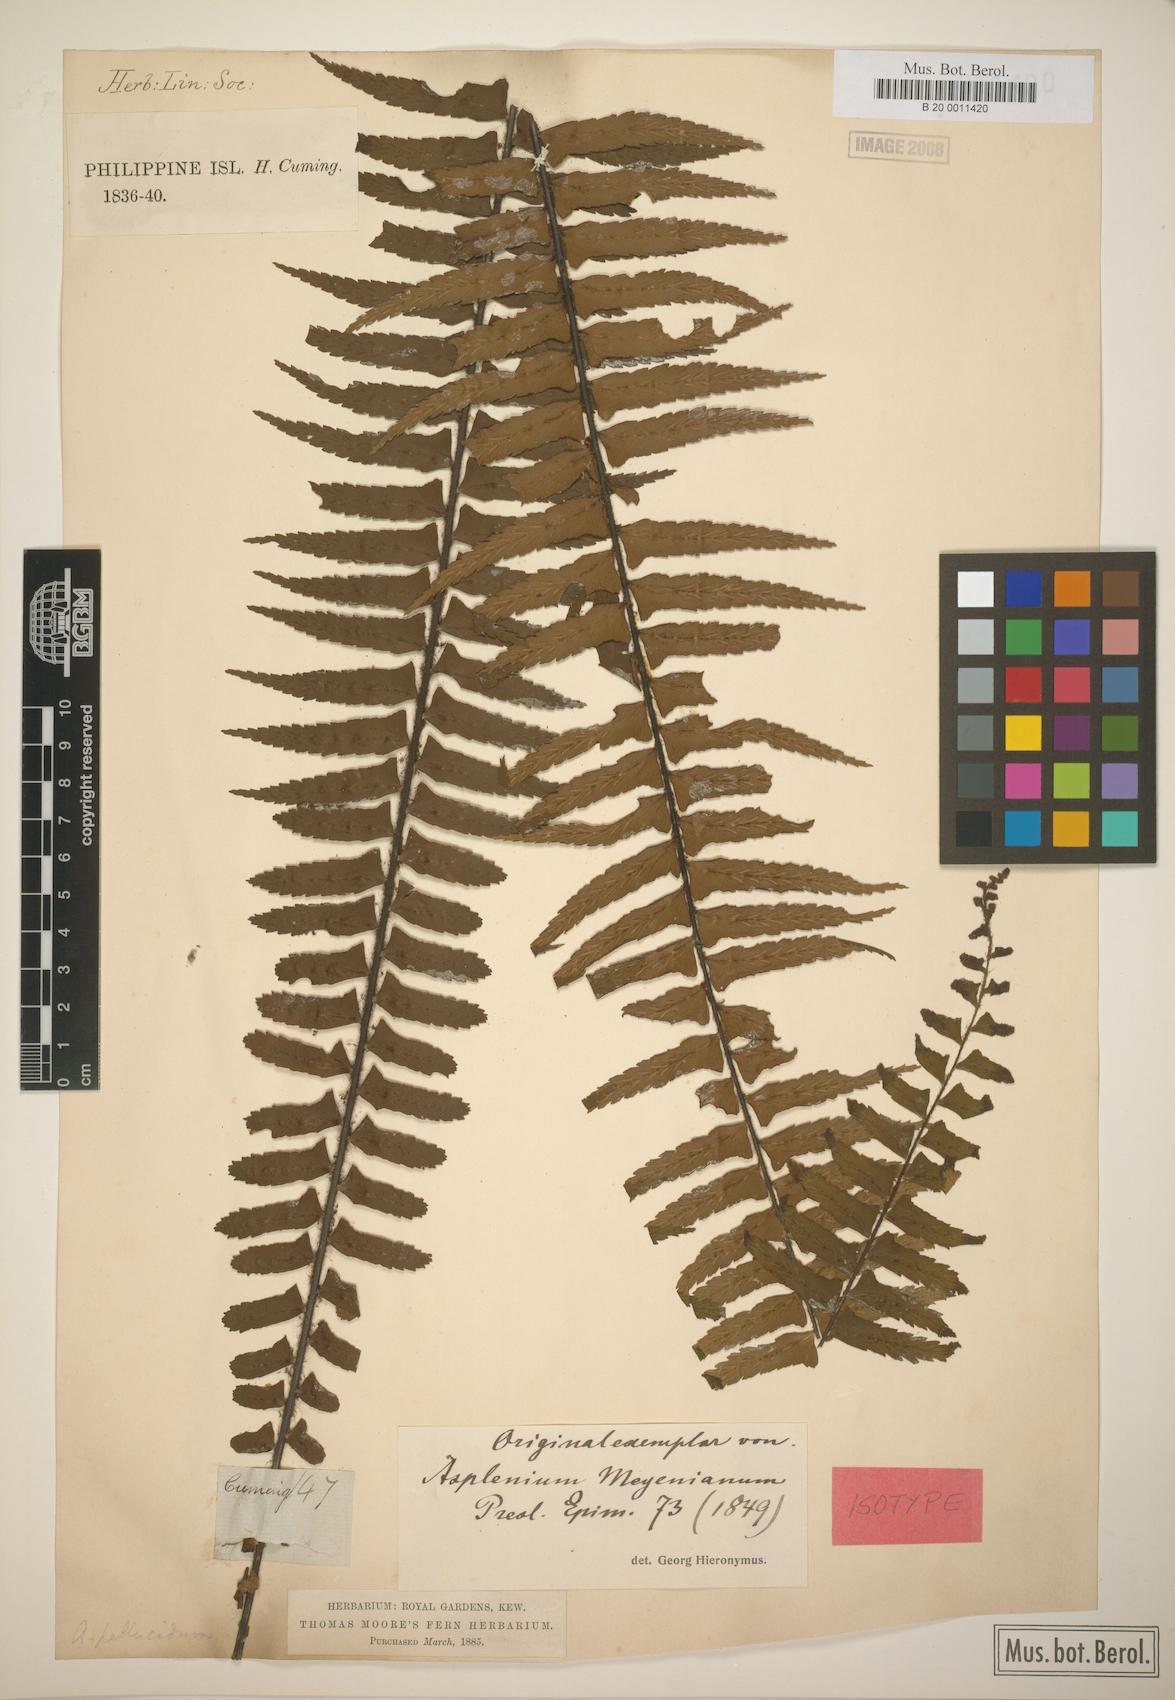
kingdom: Plantae
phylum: Tracheophyta
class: Polypodiopsida
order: Polypodiales
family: Aspleniaceae
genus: Asplenium
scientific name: Asplenium pellucidum
